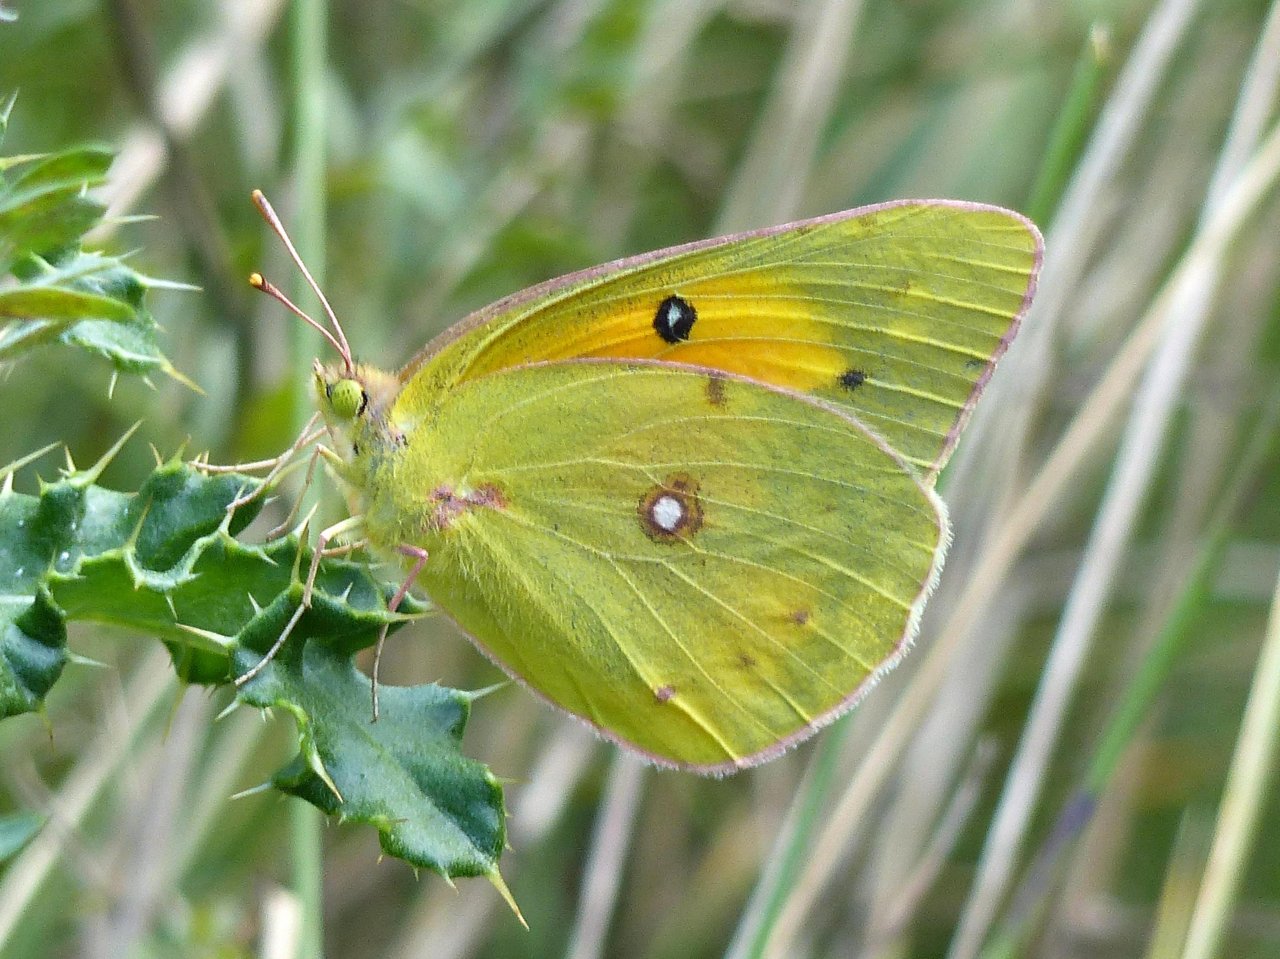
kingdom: Animalia
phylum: Arthropoda
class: Insecta
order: Lepidoptera
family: Pieridae
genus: Colias
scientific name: Colias eurytheme
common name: Orange Sulphur
